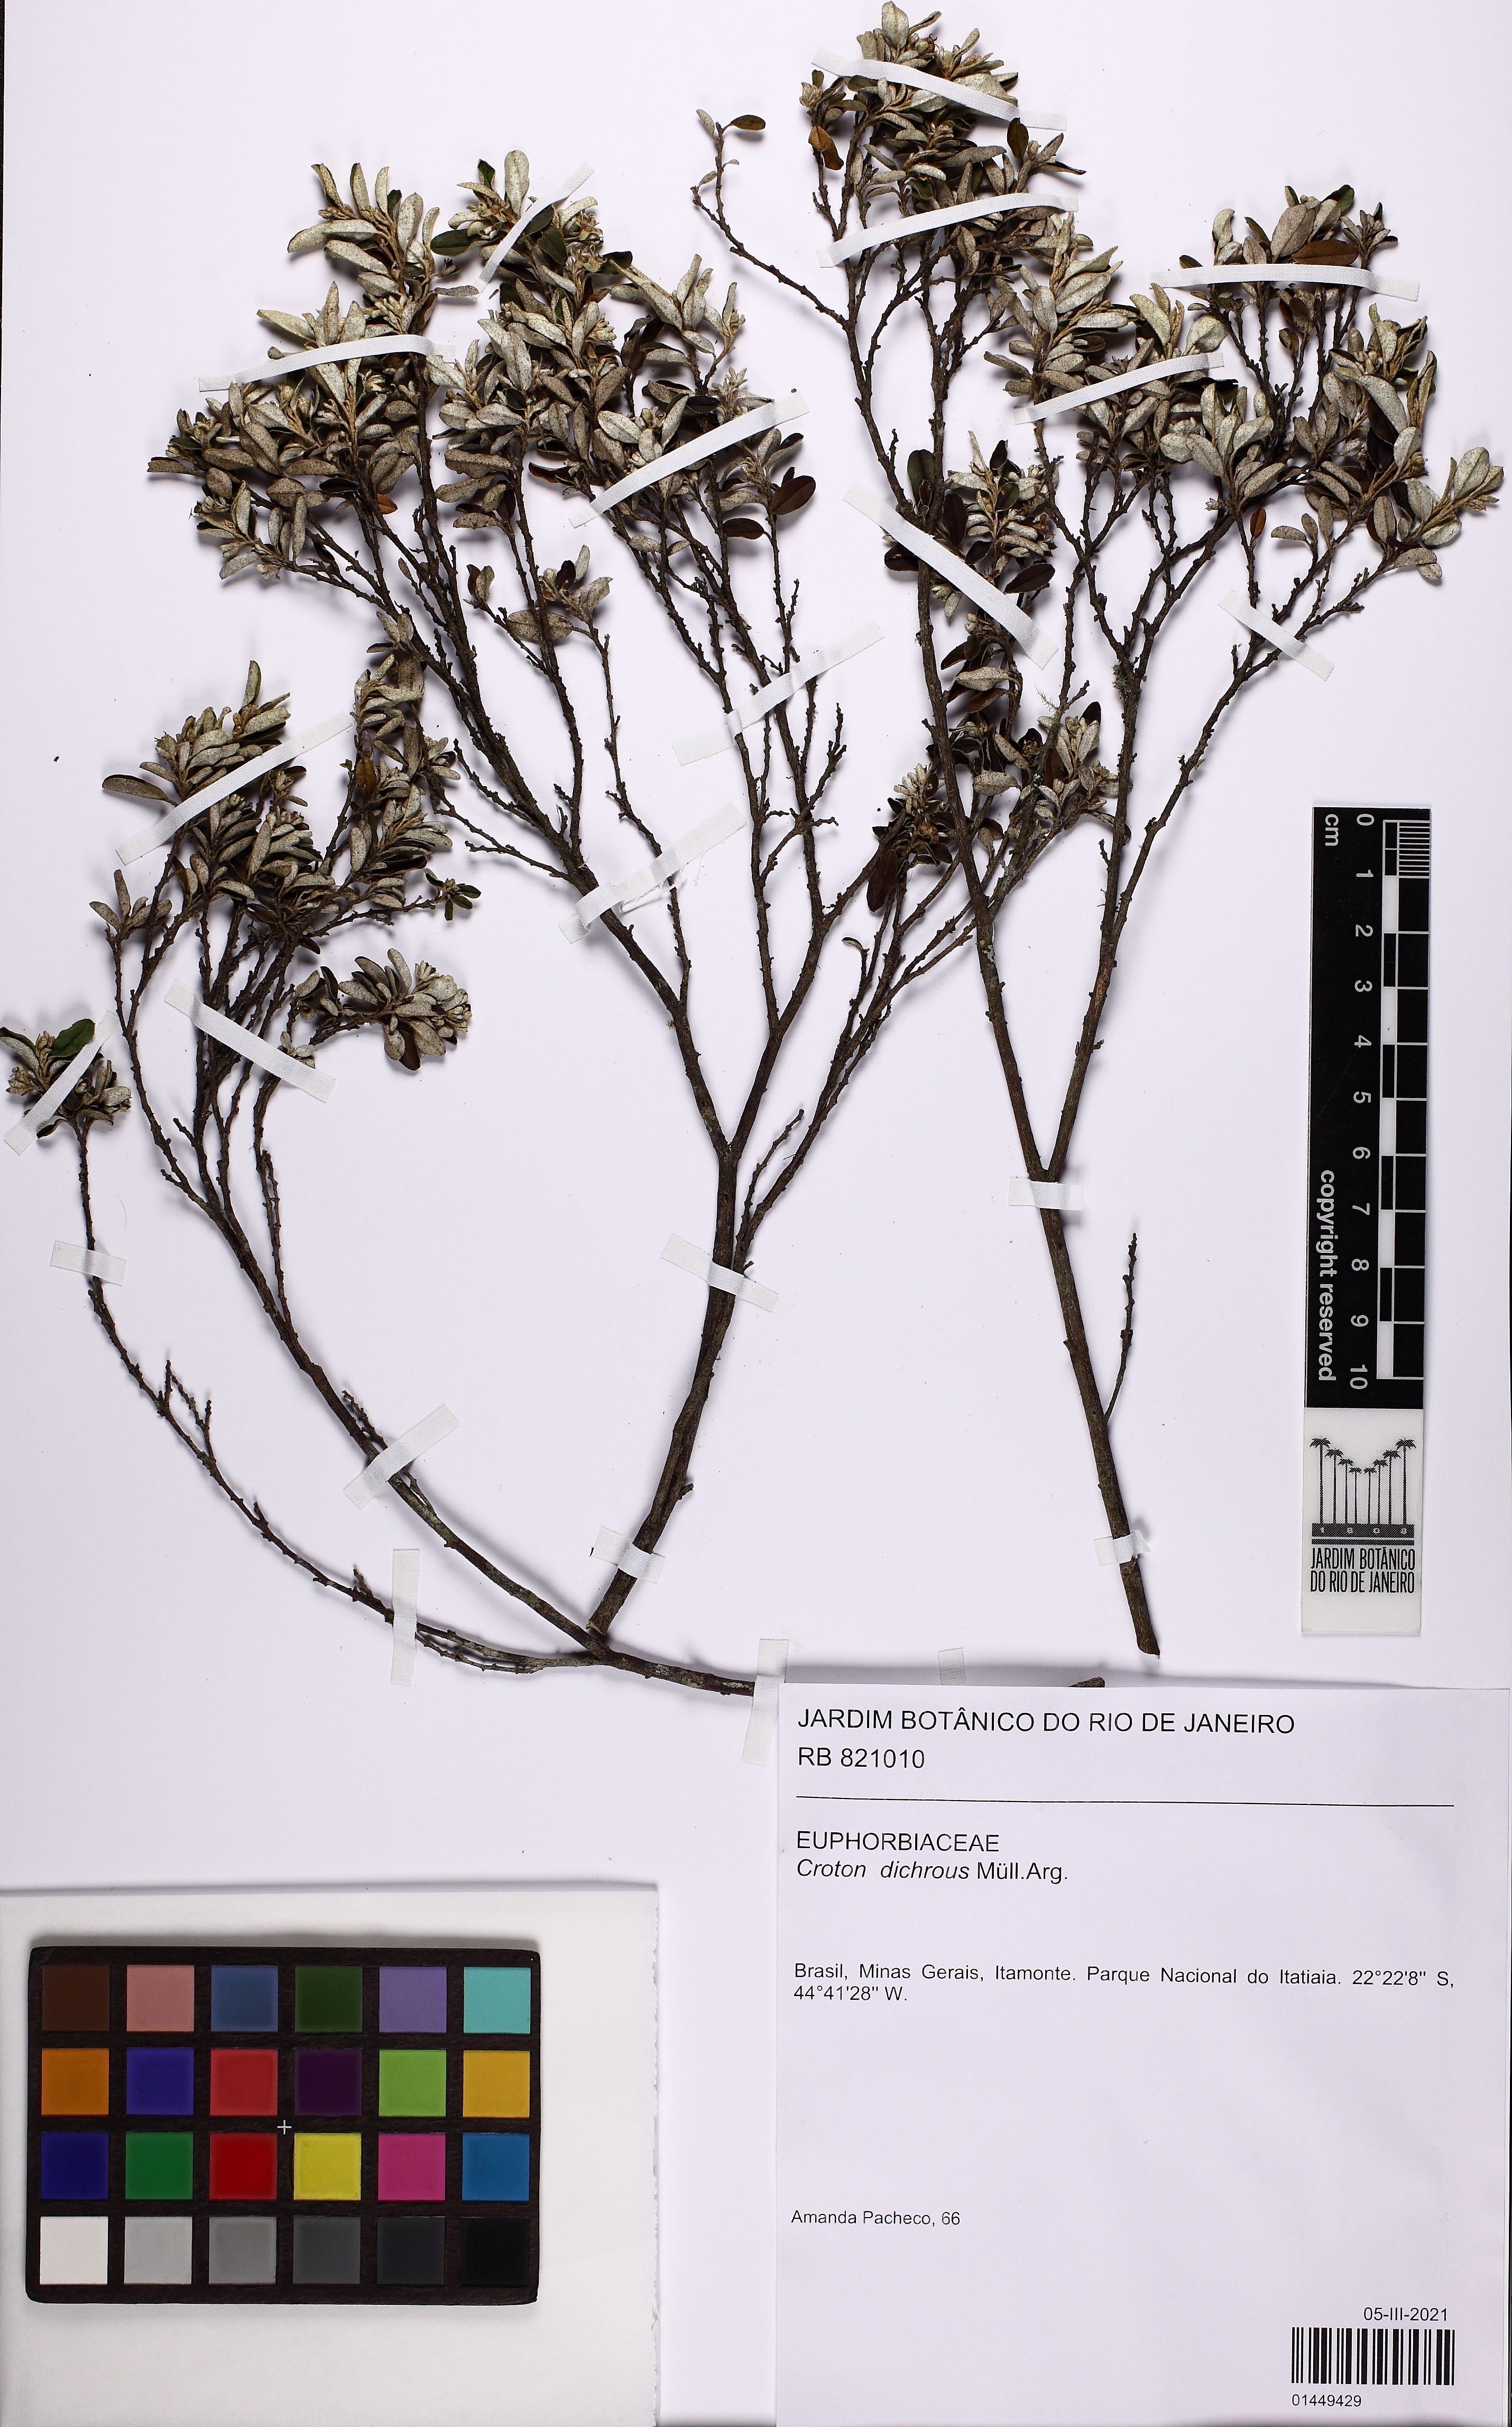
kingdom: Plantae
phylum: Tracheophyta
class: Magnoliopsida
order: Malpighiales
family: Euphorbiaceae
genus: Croton
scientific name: Croton dichrous
